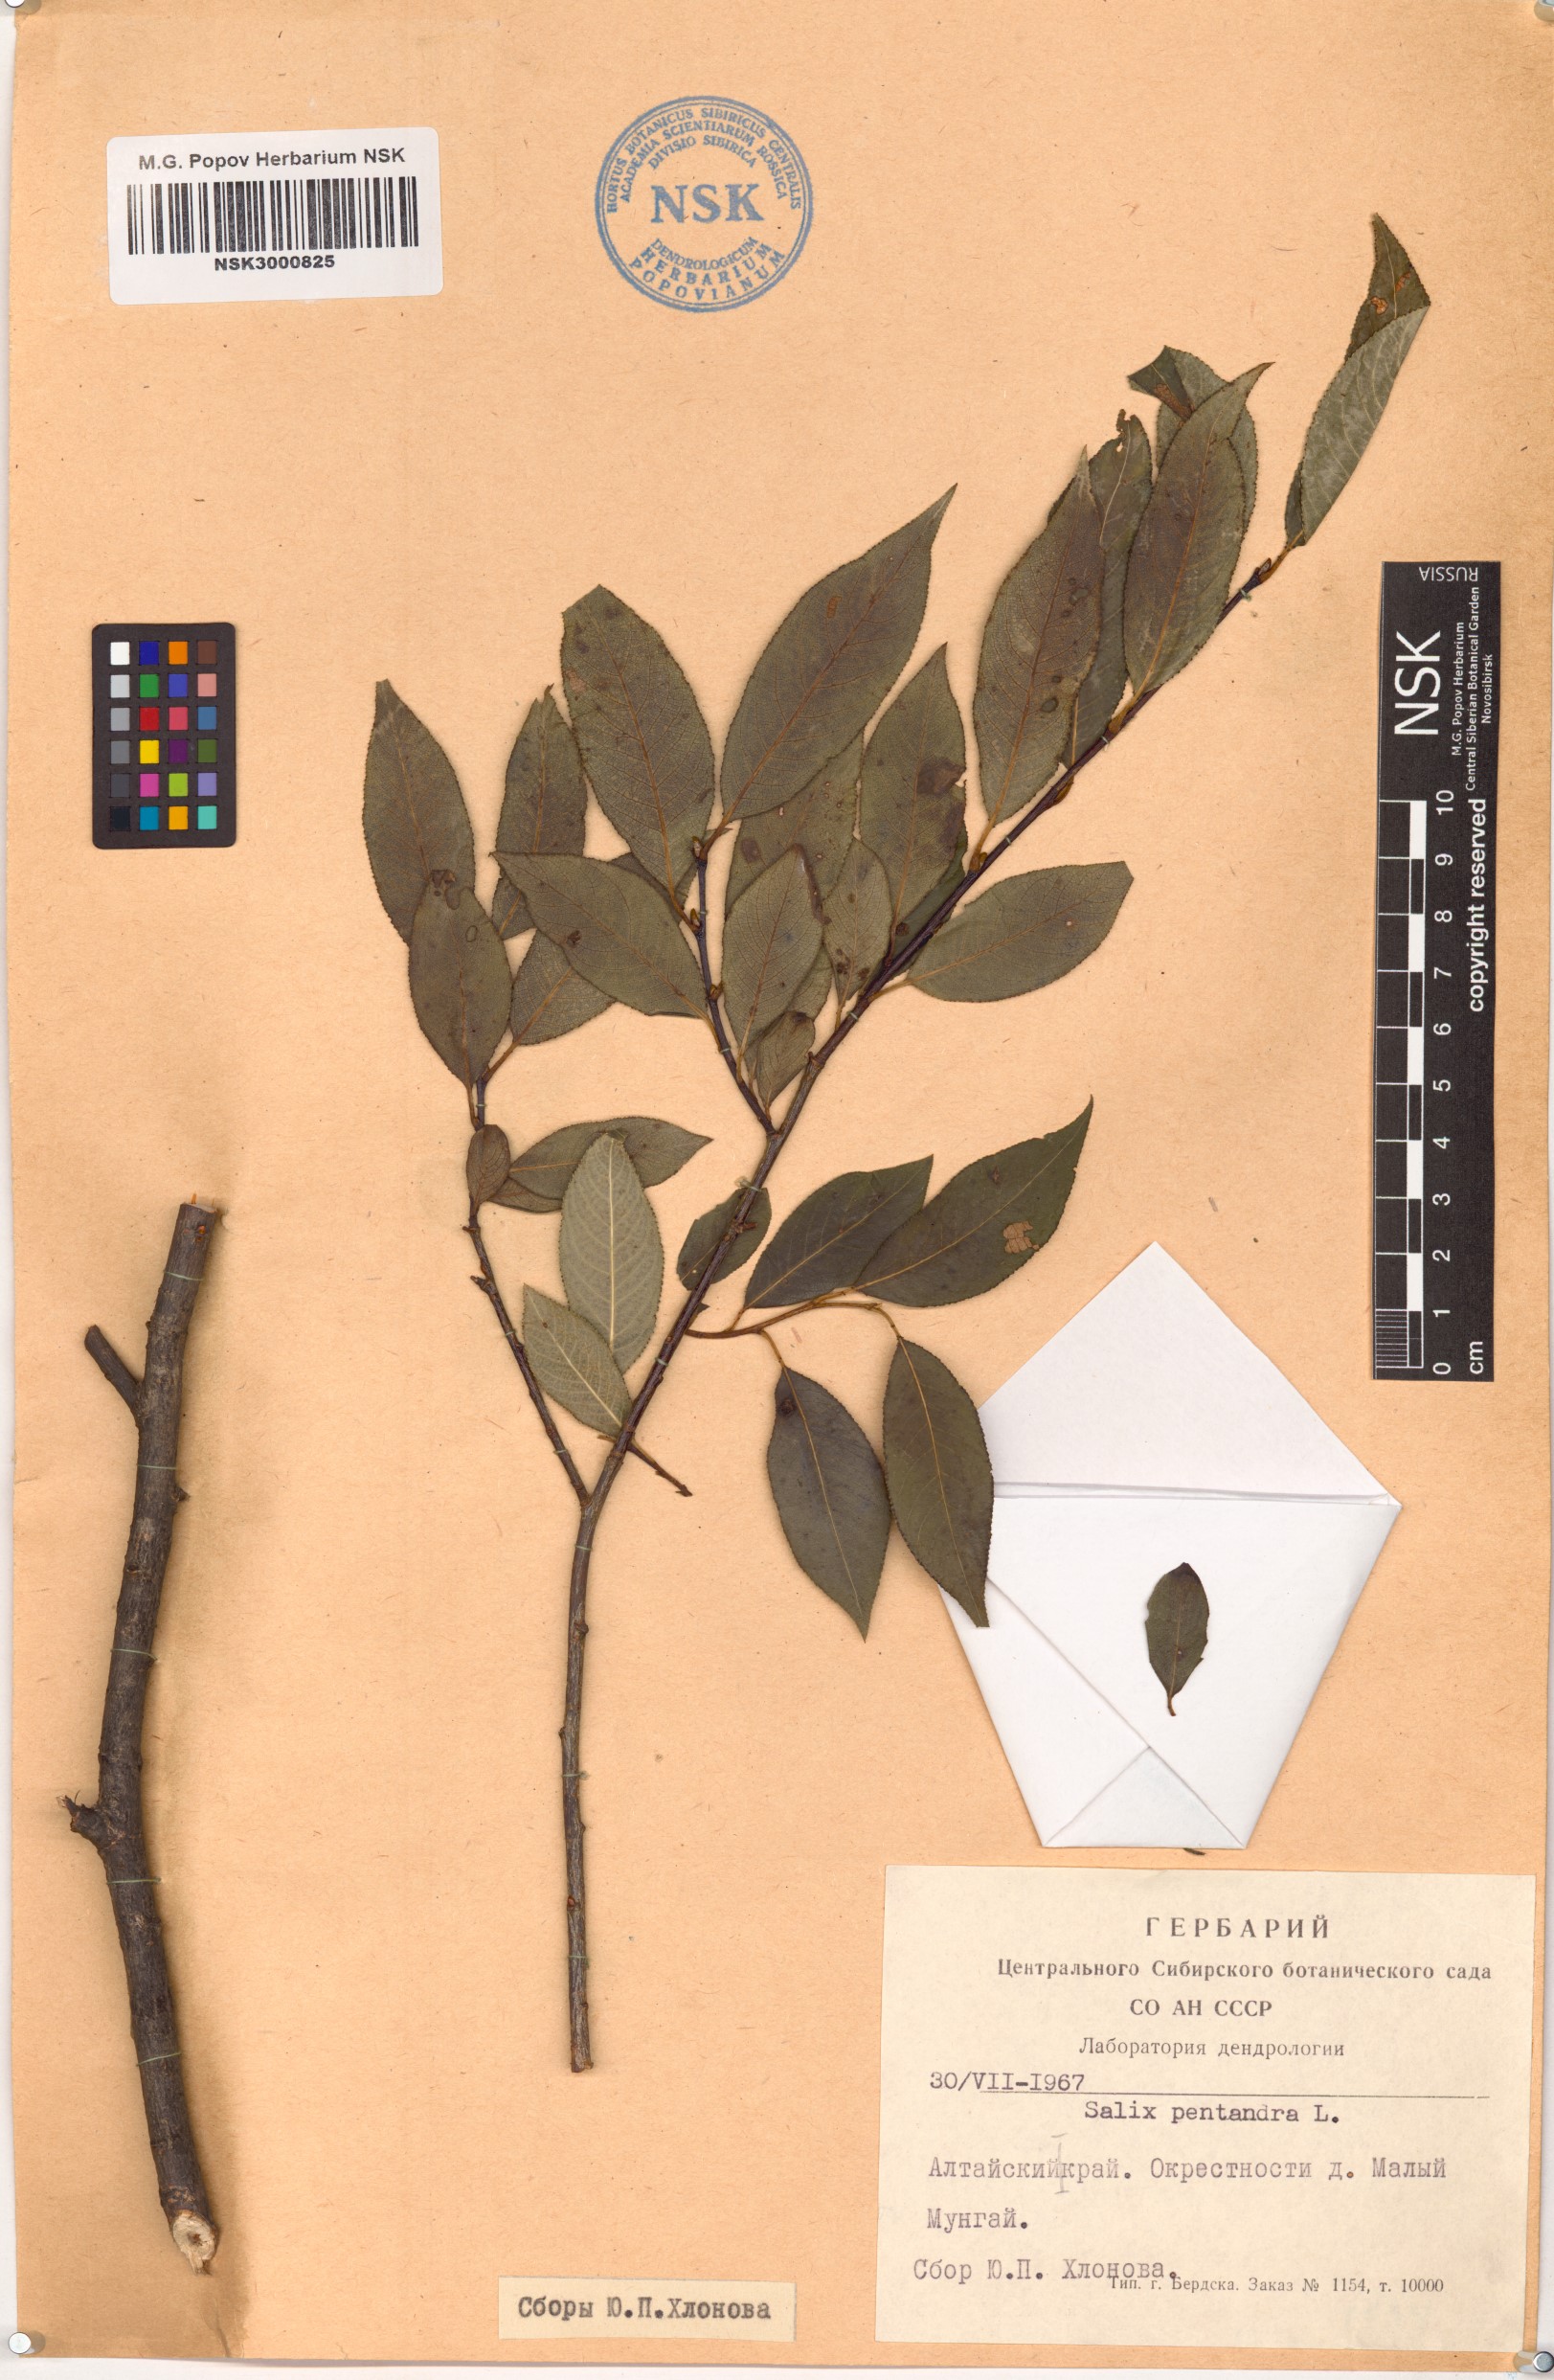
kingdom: Plantae
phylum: Tracheophyta
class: Magnoliopsida
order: Malpighiales
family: Salicaceae
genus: Salix
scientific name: Salix pentandra
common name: Bay willow
